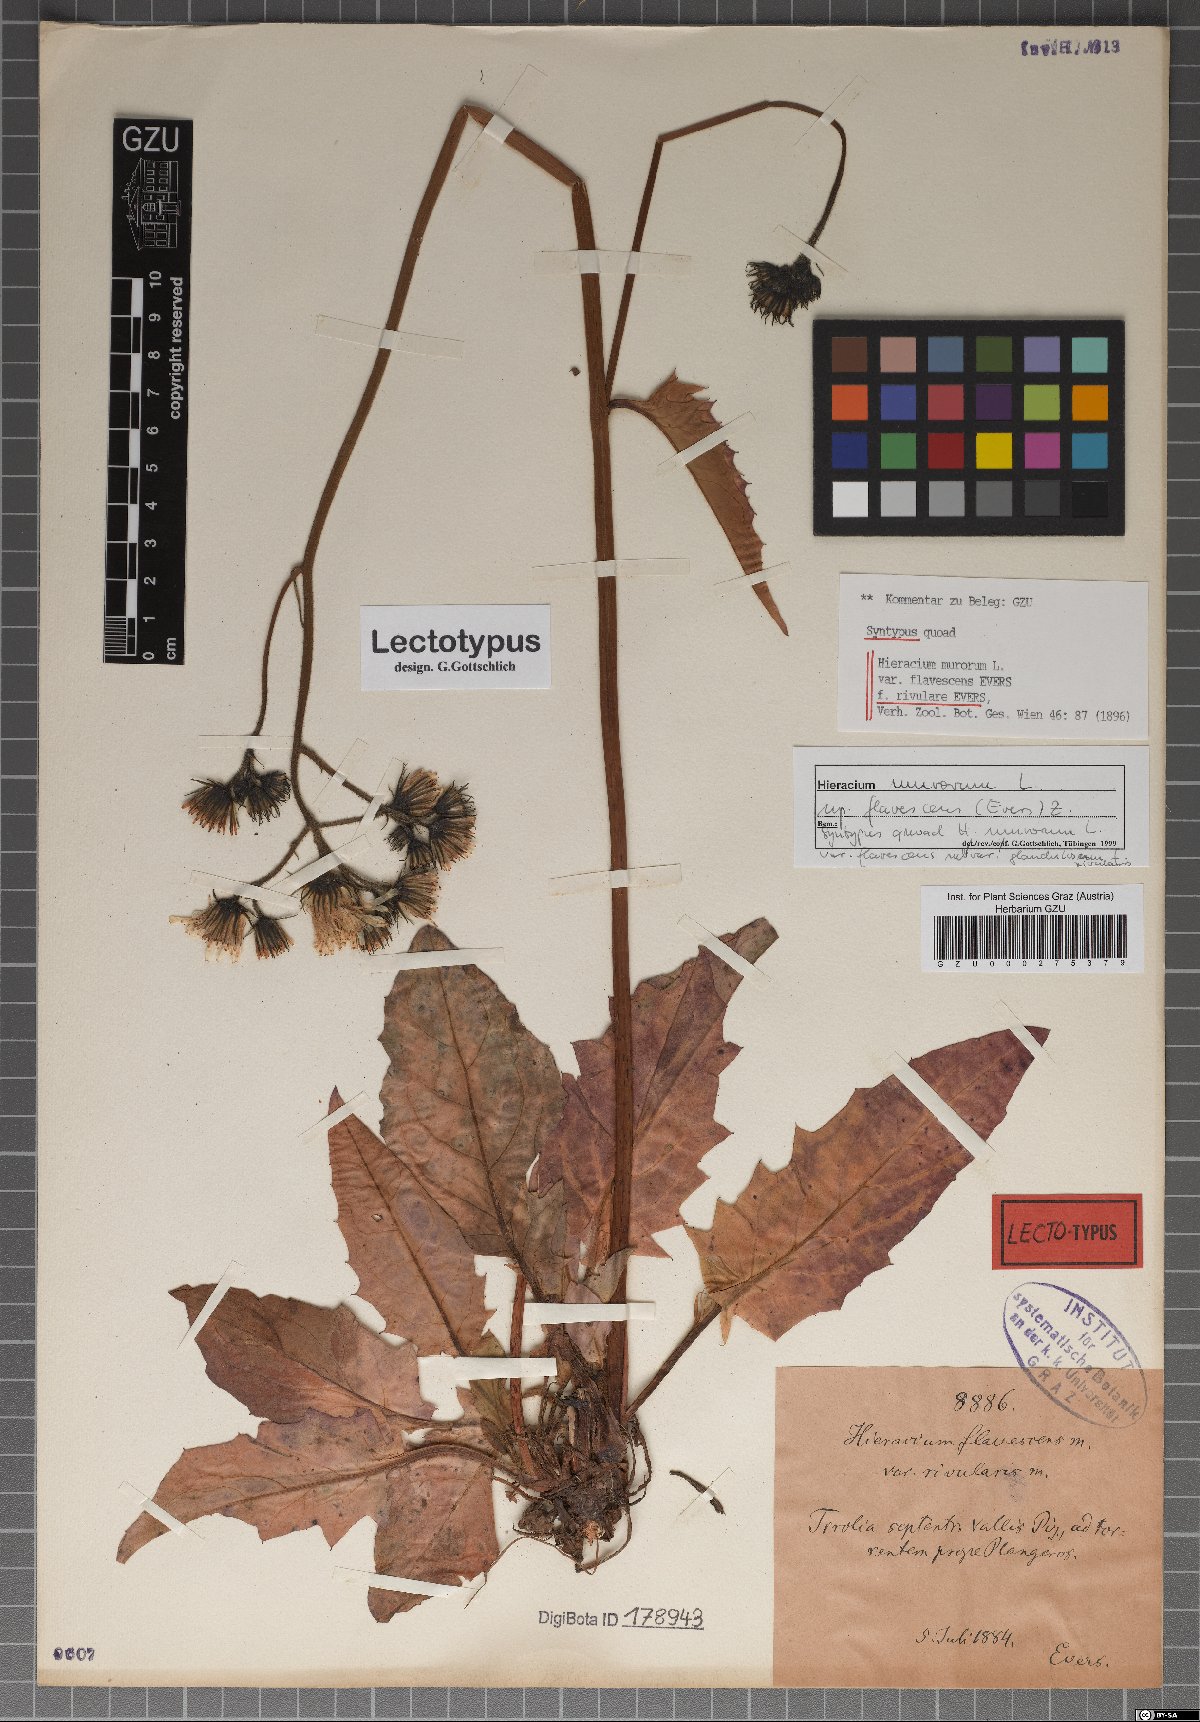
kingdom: Plantae
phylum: Tracheophyta
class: Magnoliopsida
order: Asterales
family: Asteraceae
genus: Hieracium
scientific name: Hieracium murorum
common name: Wall hawkweed
